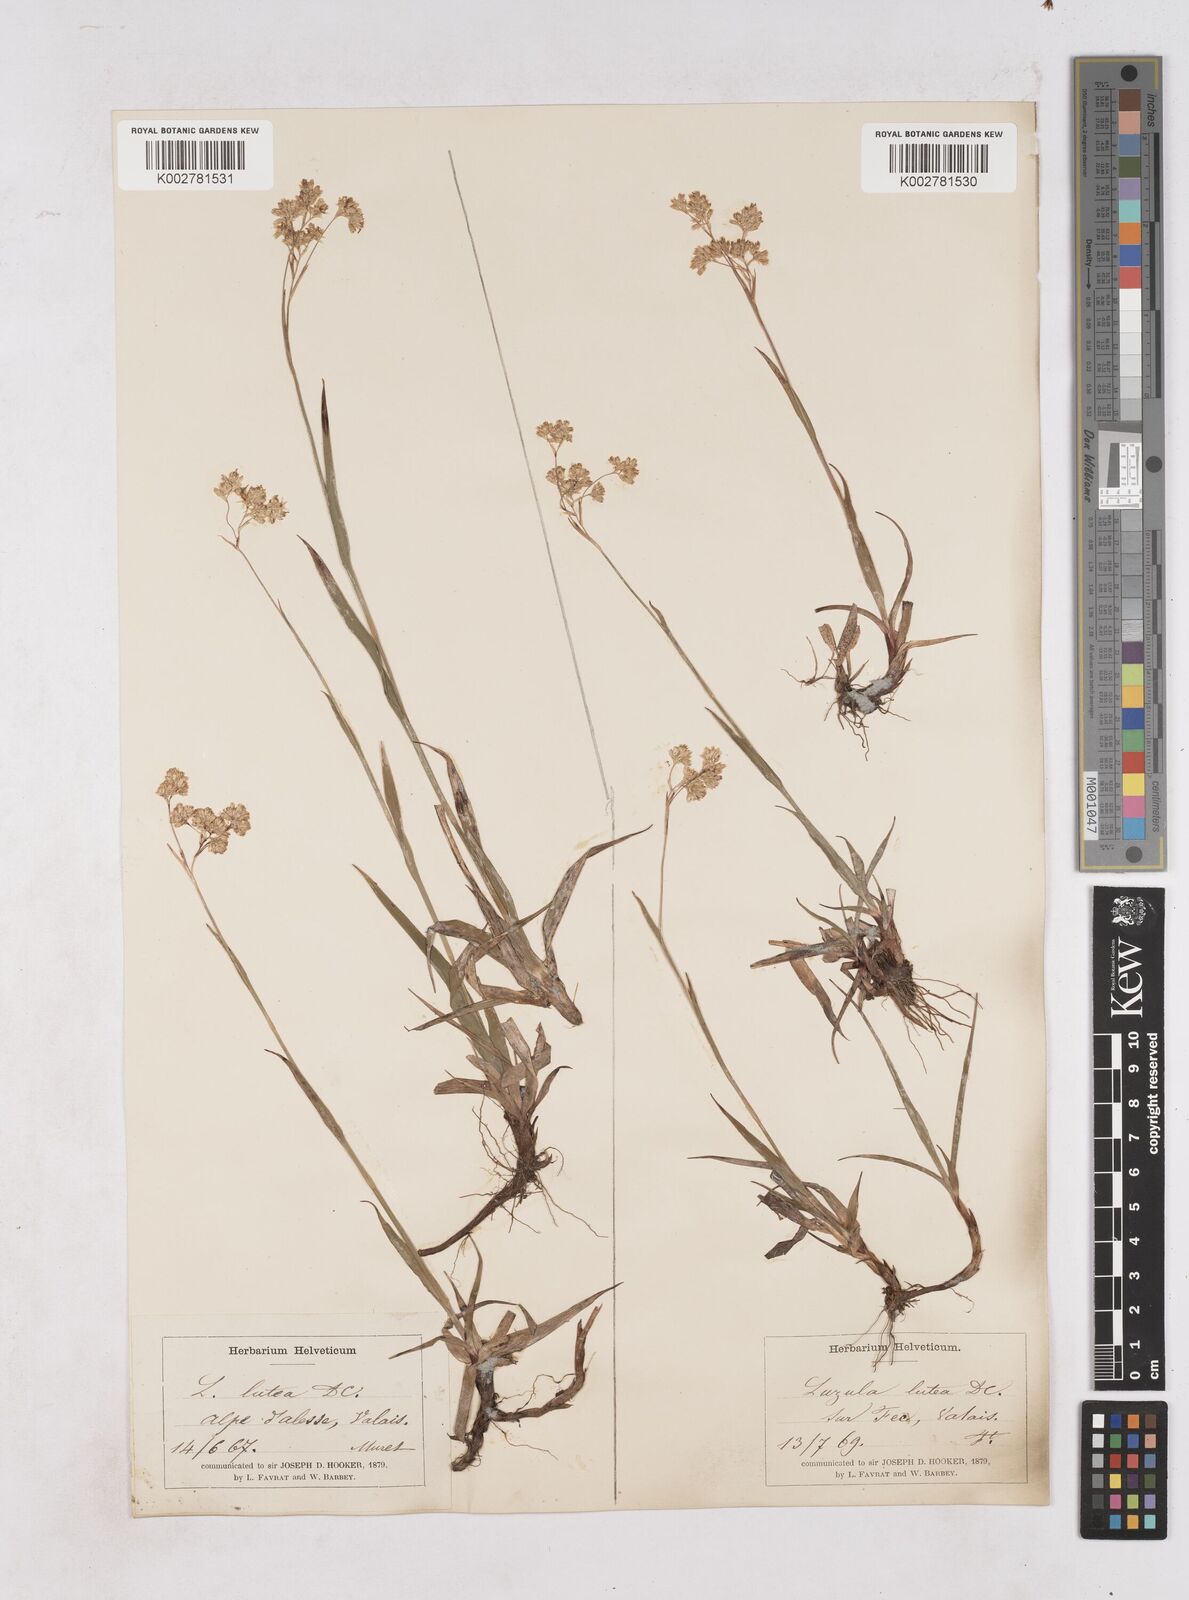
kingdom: Plantae
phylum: Tracheophyta
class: Liliopsida
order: Poales
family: Juncaceae
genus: Luzula
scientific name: Luzula lutea
